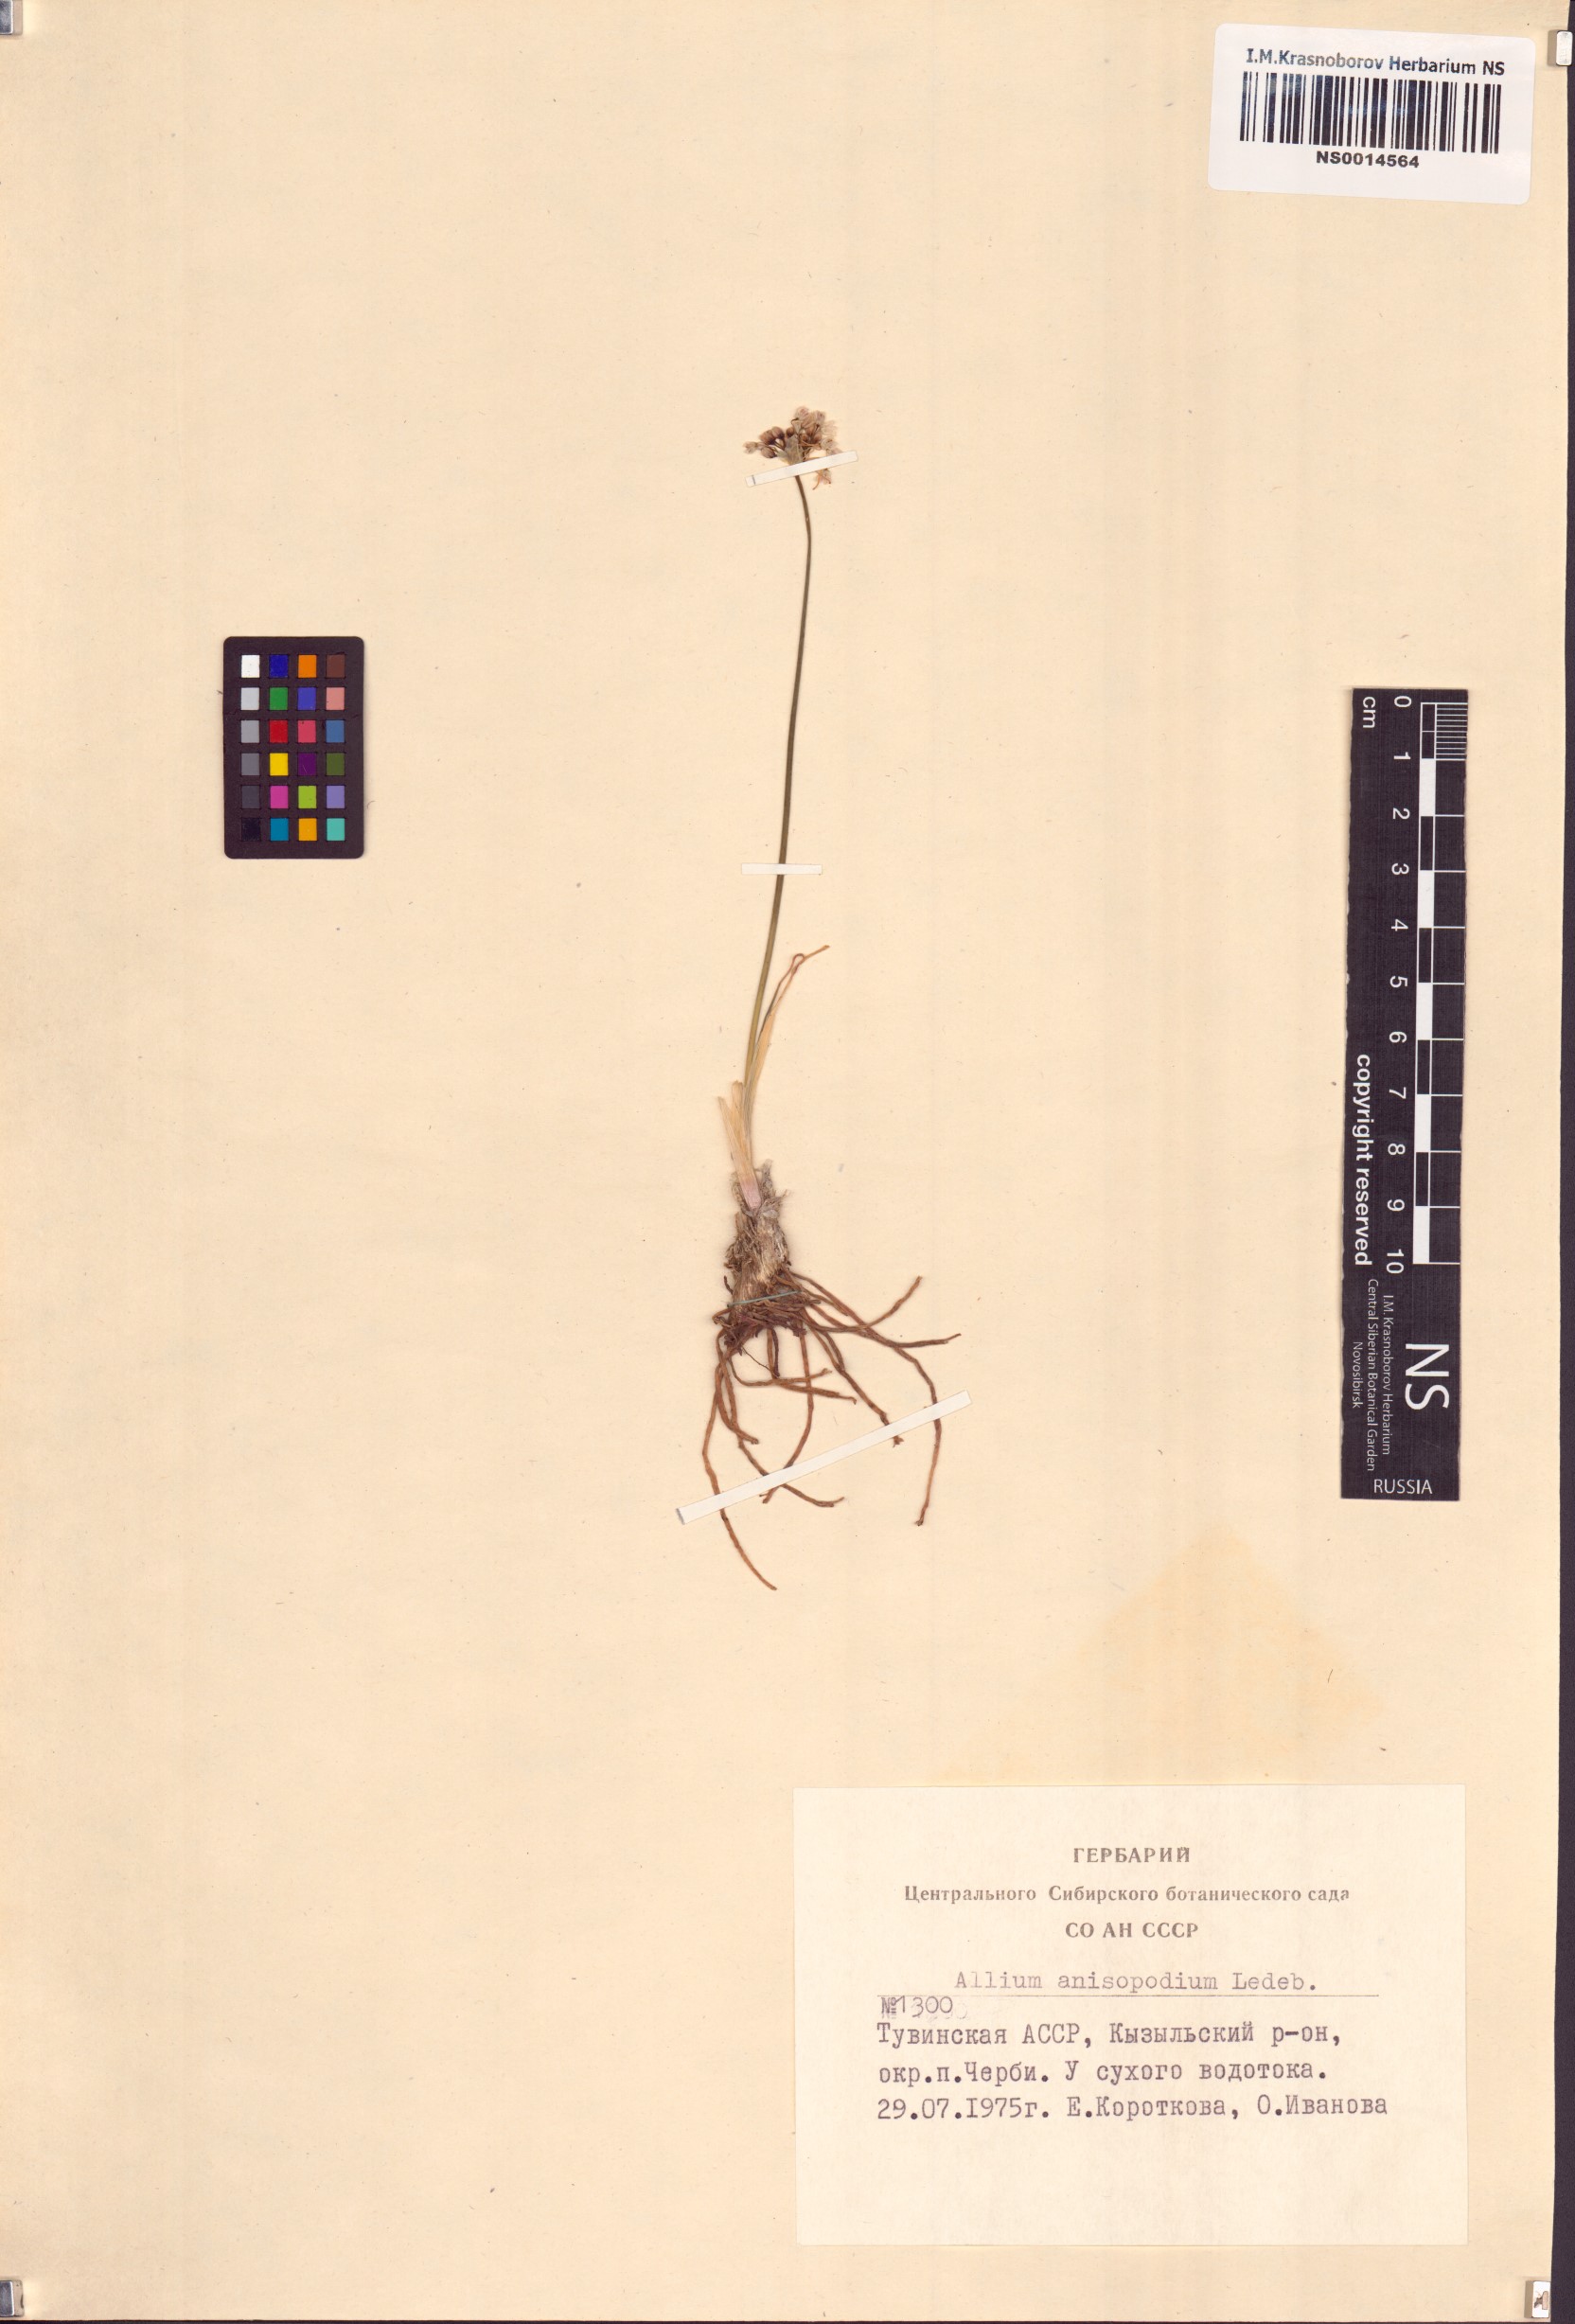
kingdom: Plantae
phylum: Tracheophyta
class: Liliopsida
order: Asparagales
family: Amaryllidaceae
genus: Allium
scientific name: Allium anisopodium
